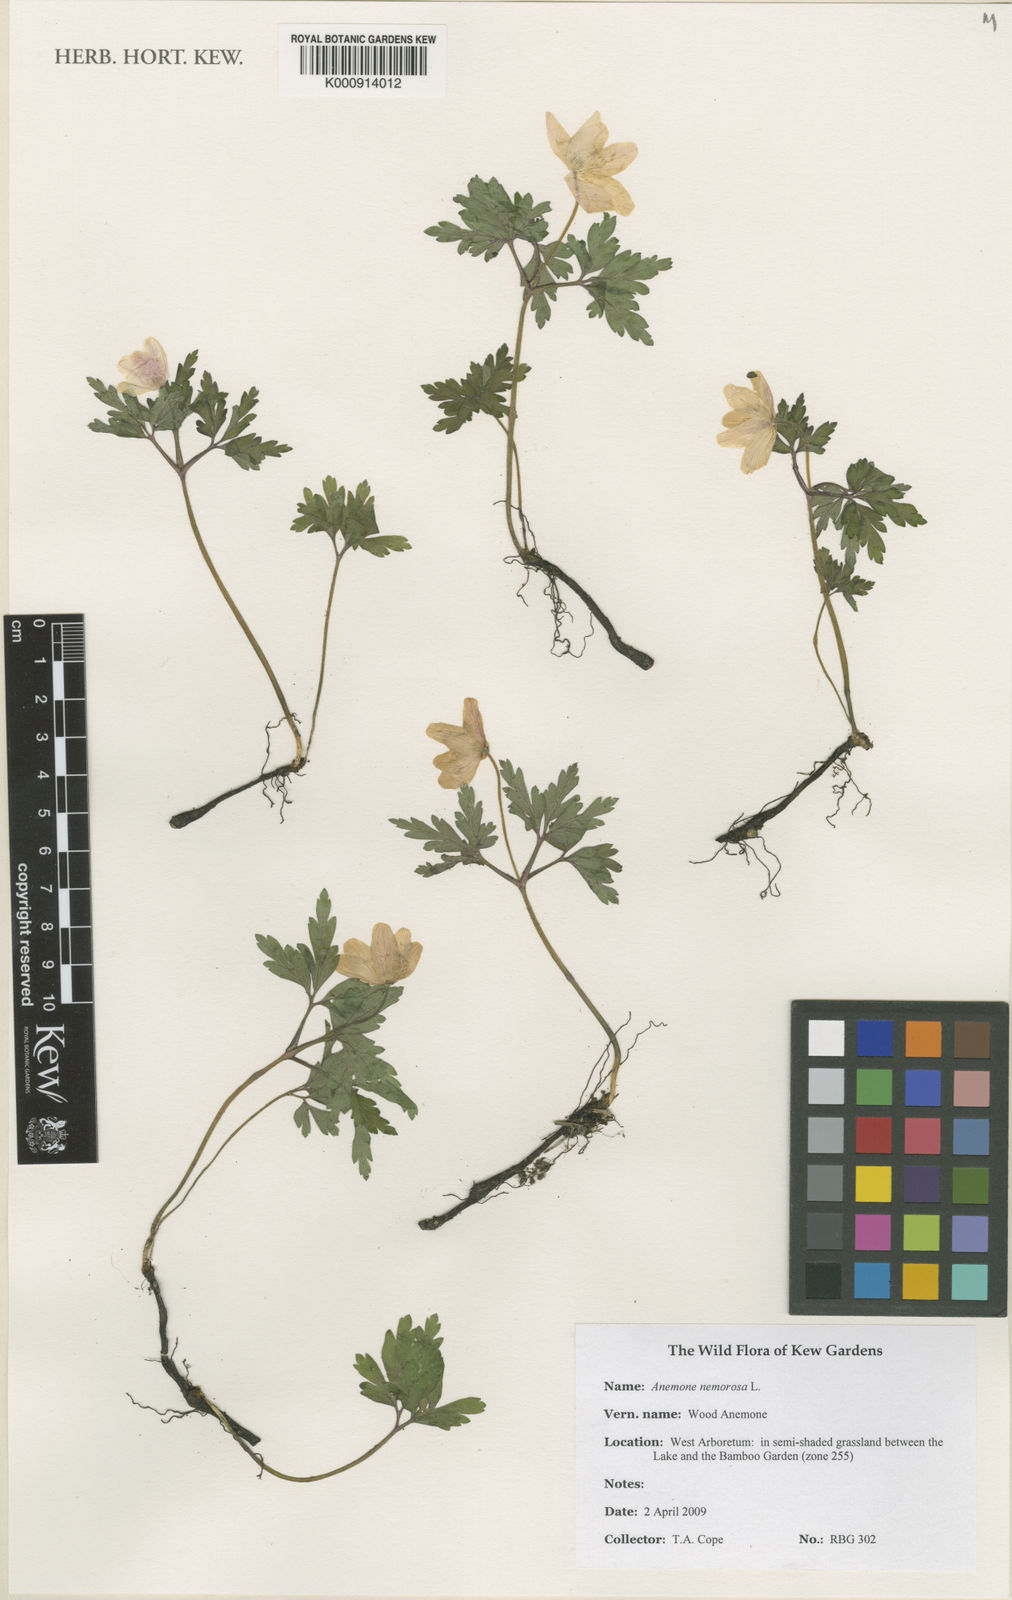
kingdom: Plantae
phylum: Tracheophyta
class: Magnoliopsida
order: Ranunculales
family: Ranunculaceae
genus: Anemone
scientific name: Anemone nemorosa
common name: Wood anemone
